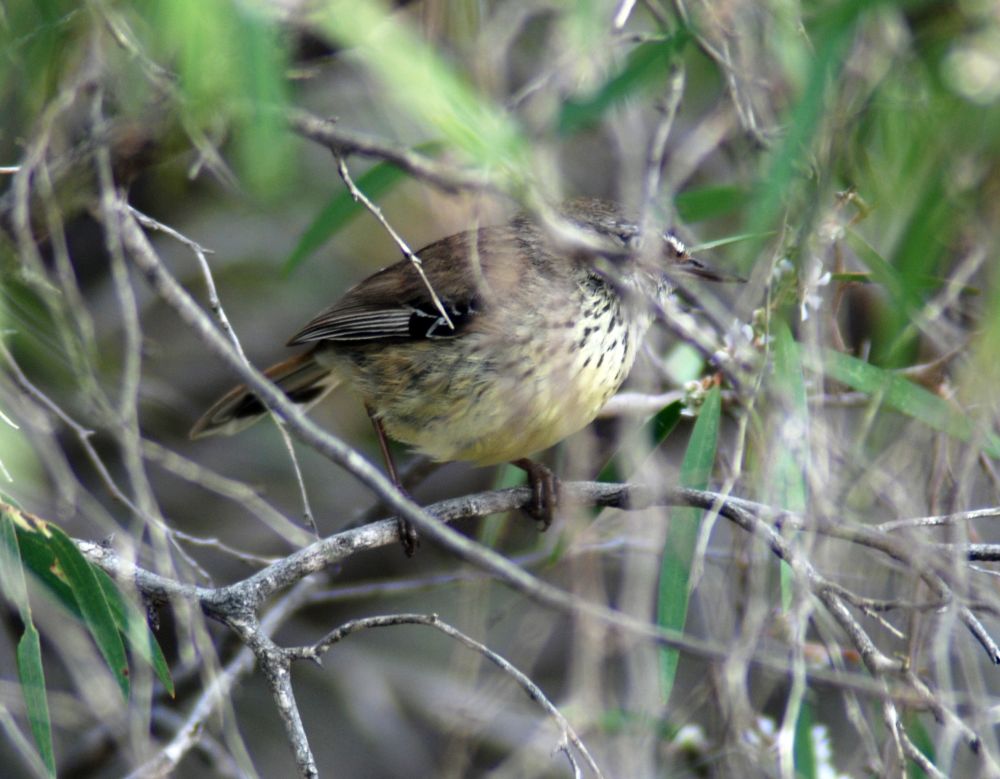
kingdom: Animalia
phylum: Chordata
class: Aves
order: Passeriformes
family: Acanthizidae
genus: Sericornis
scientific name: Sericornis frontalis
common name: White-browed scrubwren
